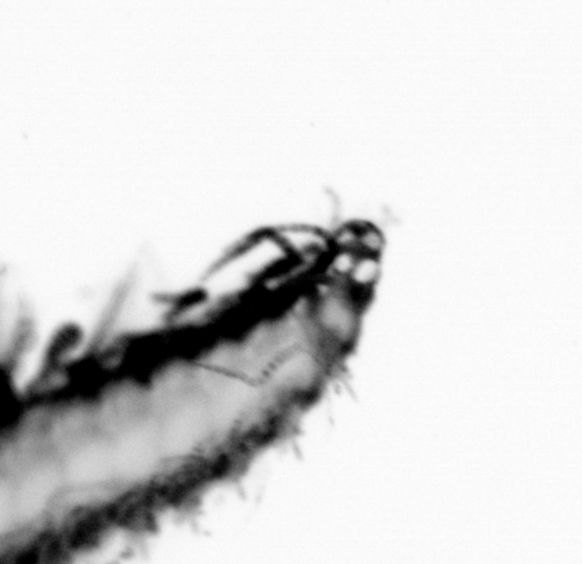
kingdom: Animalia
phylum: Annelida
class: Polychaeta
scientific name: Polychaeta
